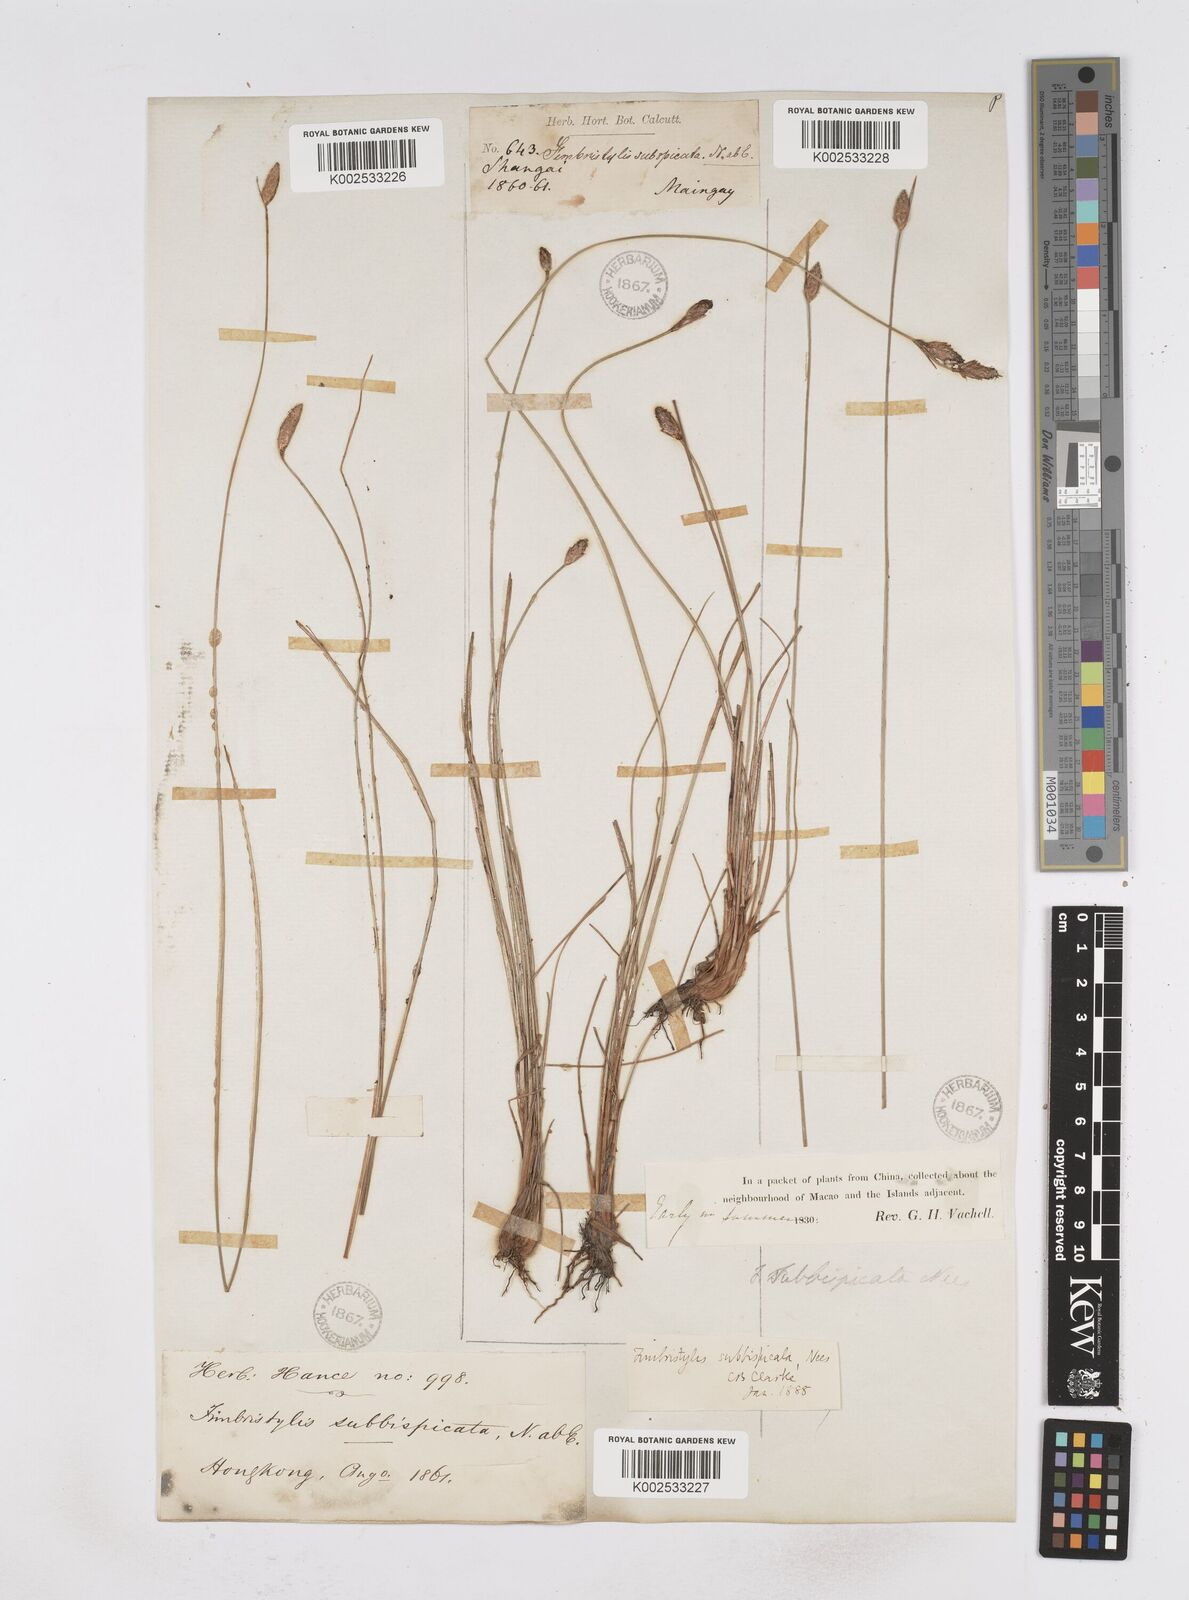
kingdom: Plantae
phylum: Tracheophyta
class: Liliopsida
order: Poales
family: Cyperaceae
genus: Fimbristylis
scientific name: Fimbristylis tristachya
